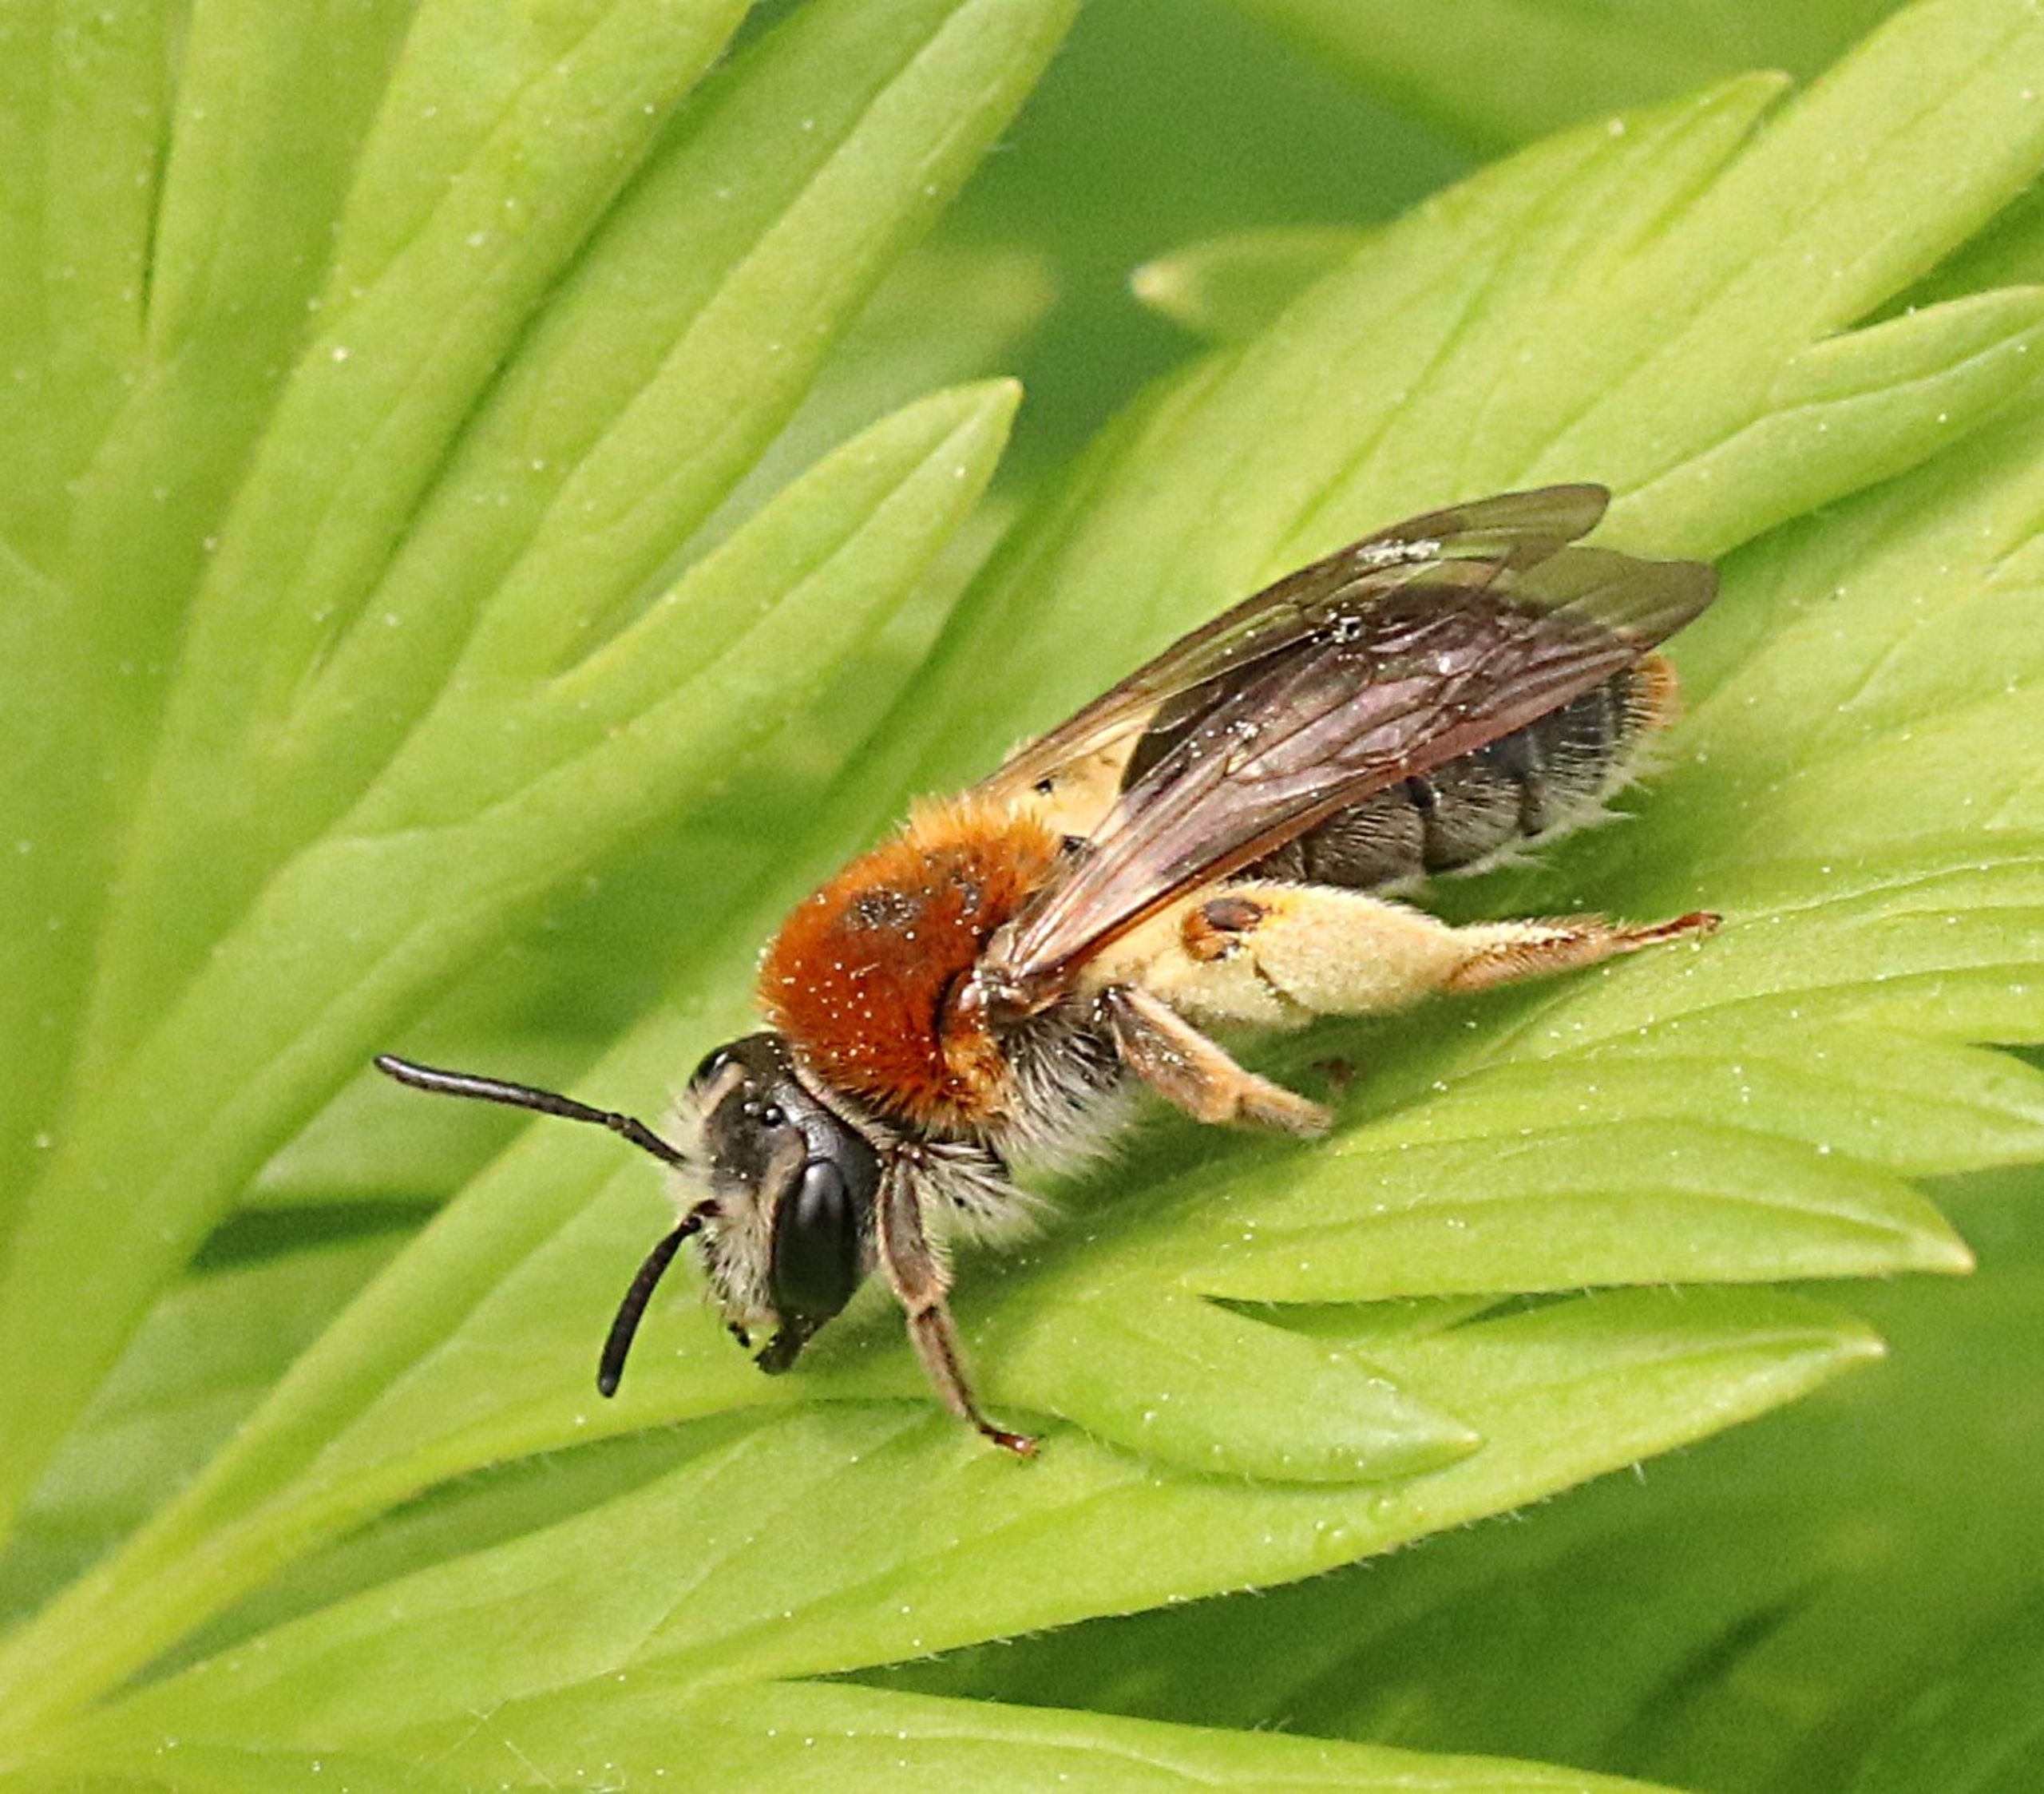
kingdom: Animalia
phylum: Arthropoda
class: Insecta
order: Hymenoptera
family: Andrenidae
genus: Andrena
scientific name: Andrena haemorrhoa
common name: Havejordbi
